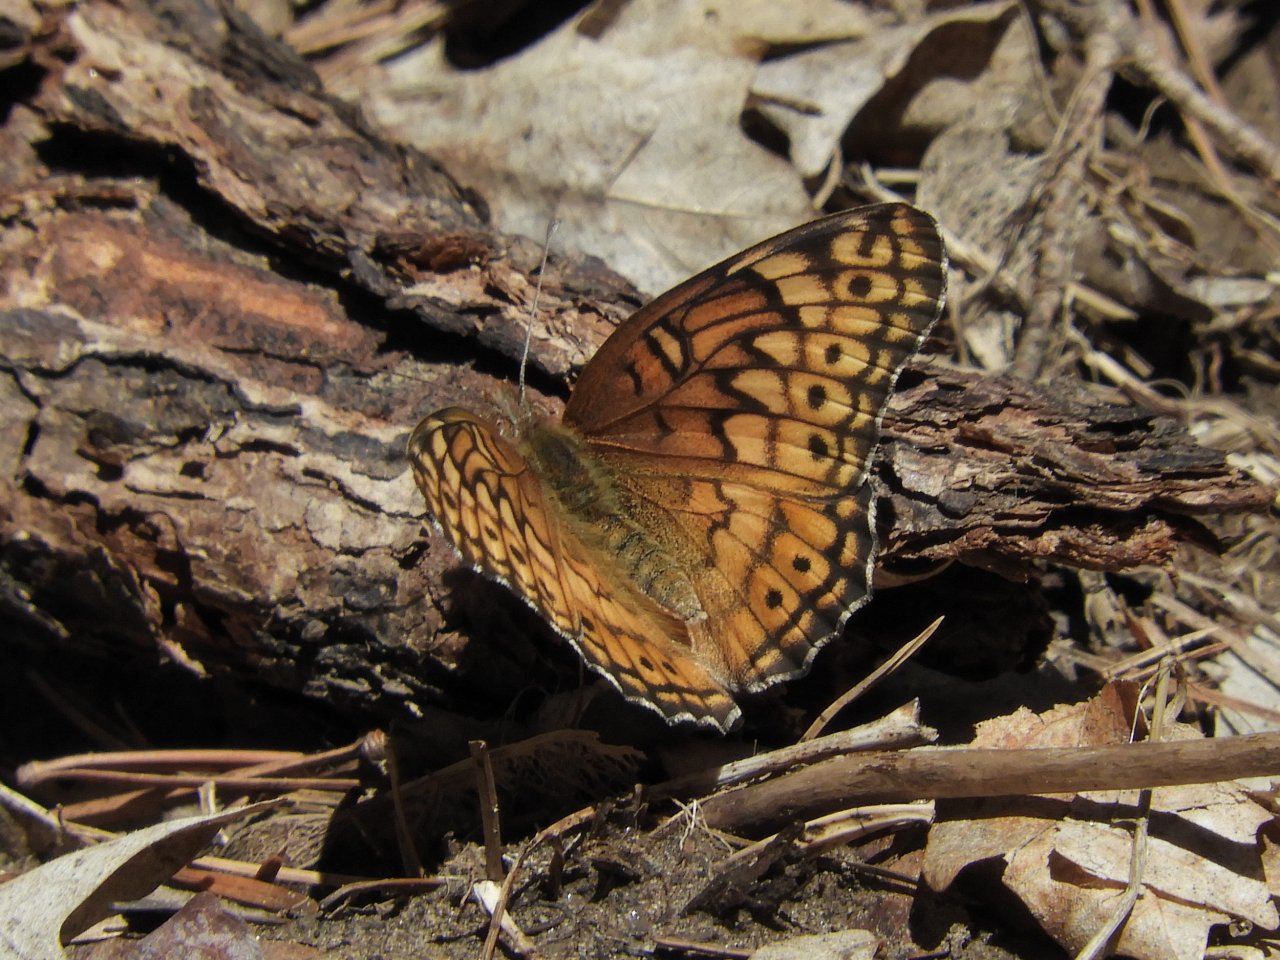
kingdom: Animalia
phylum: Arthropoda
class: Insecta
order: Lepidoptera
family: Nymphalidae
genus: Euptoieta
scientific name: Euptoieta claudia
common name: Variegated Fritillary
